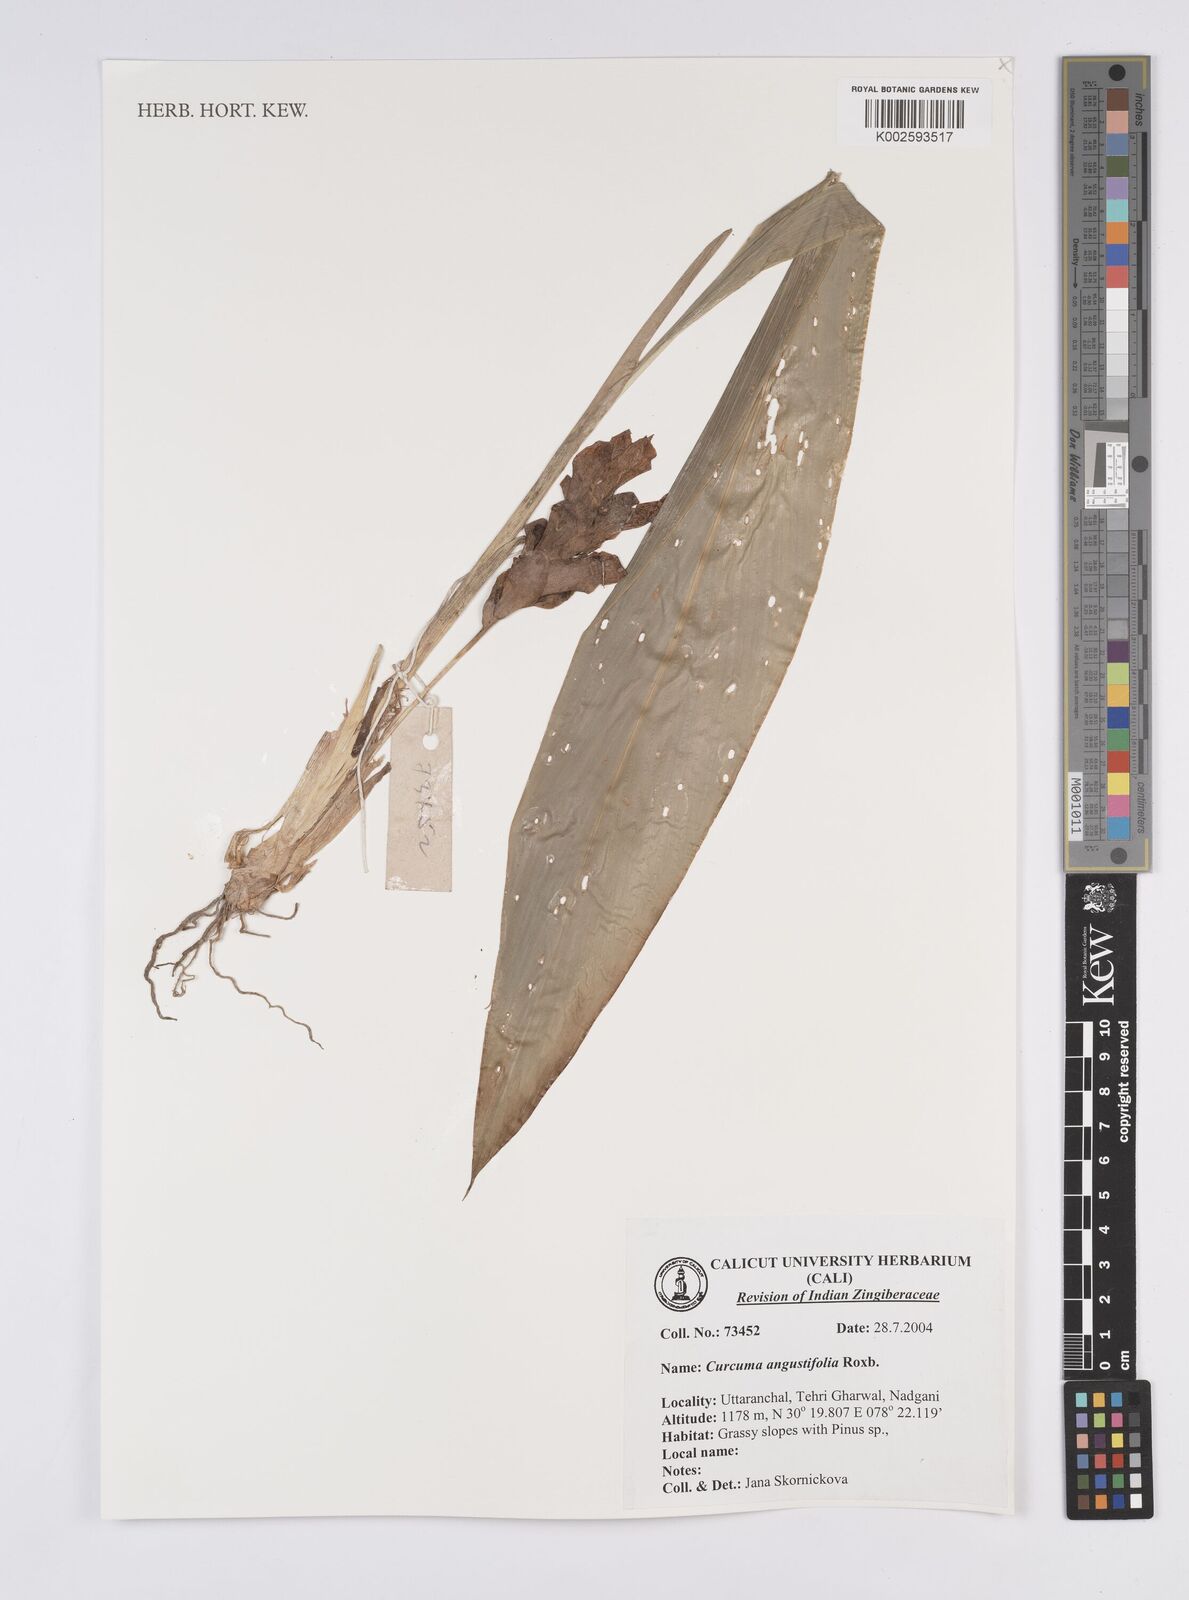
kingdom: Plantae
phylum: Tracheophyta
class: Liliopsida
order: Zingiberales
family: Zingiberaceae
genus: Curcuma
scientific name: Curcuma angustifolia
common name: East indian arrowroot
